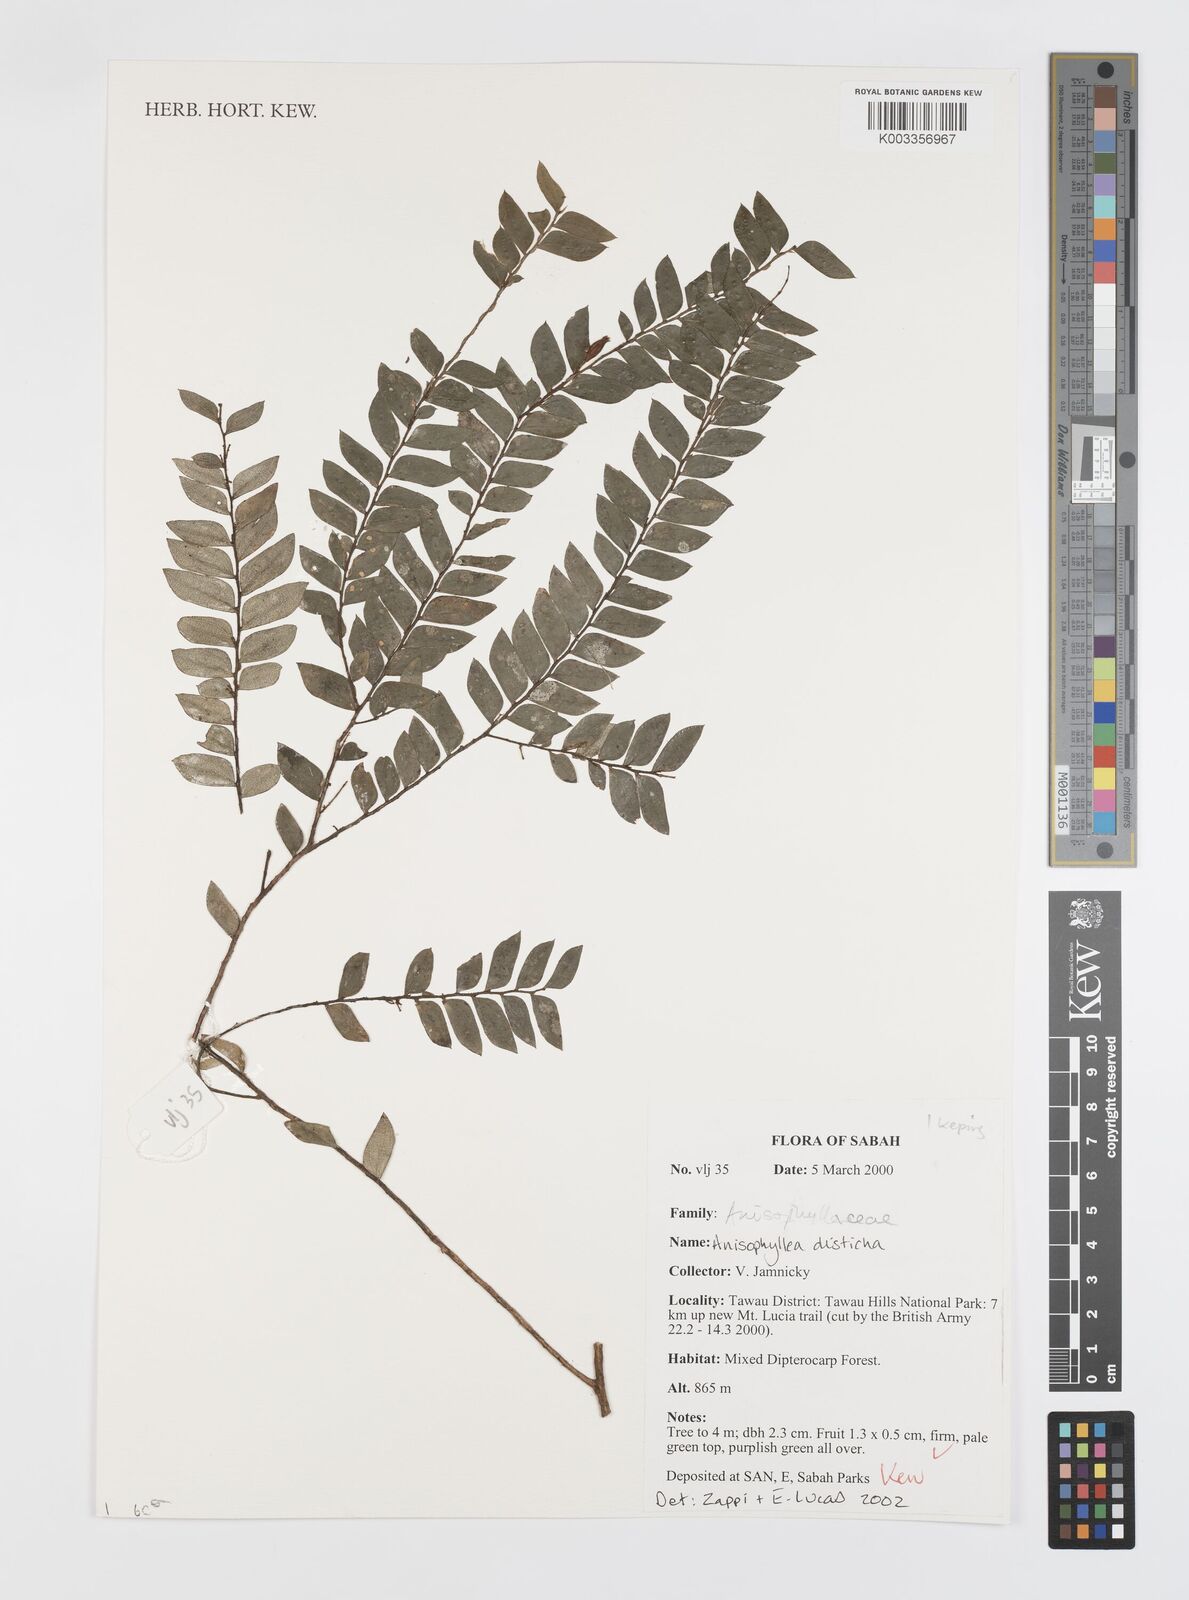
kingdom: Plantae
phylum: Tracheophyta
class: Magnoliopsida
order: Cucurbitales
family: Anisophylleaceae
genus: Anisophyllea
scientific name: Anisophyllea disticha
